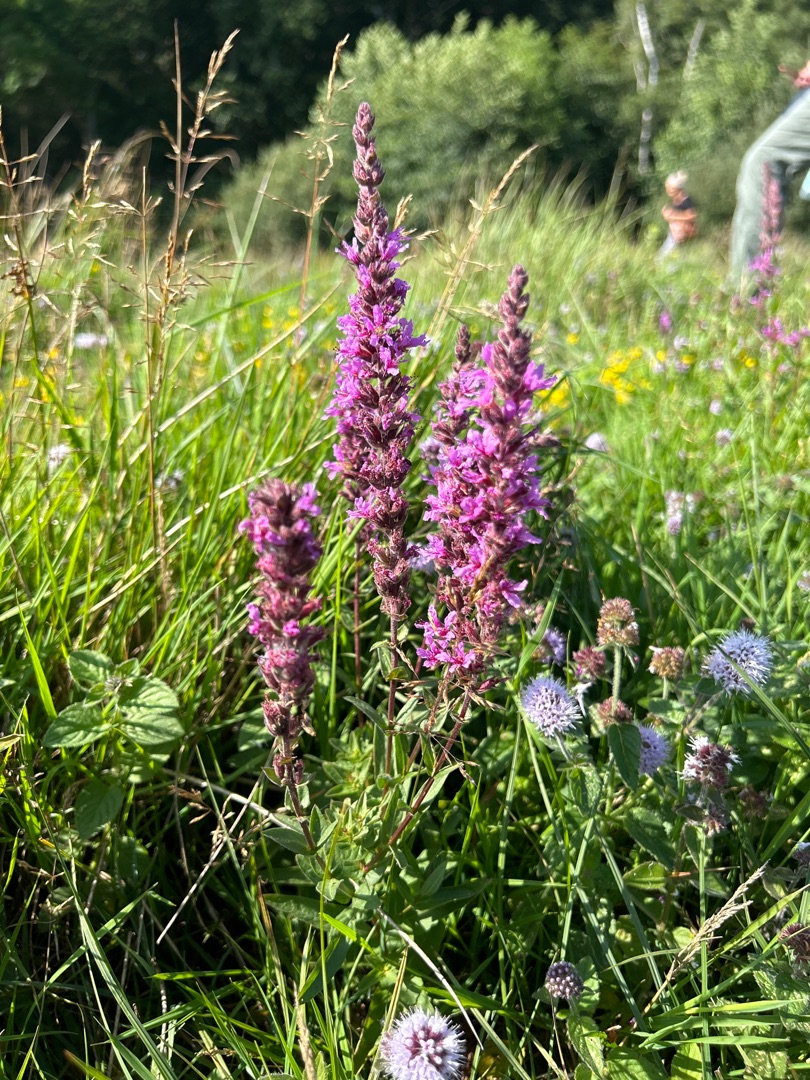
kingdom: Plantae
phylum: Tracheophyta
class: Magnoliopsida
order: Myrtales
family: Lythraceae
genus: Lythrum
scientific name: Lythrum salicaria
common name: Kattehale
